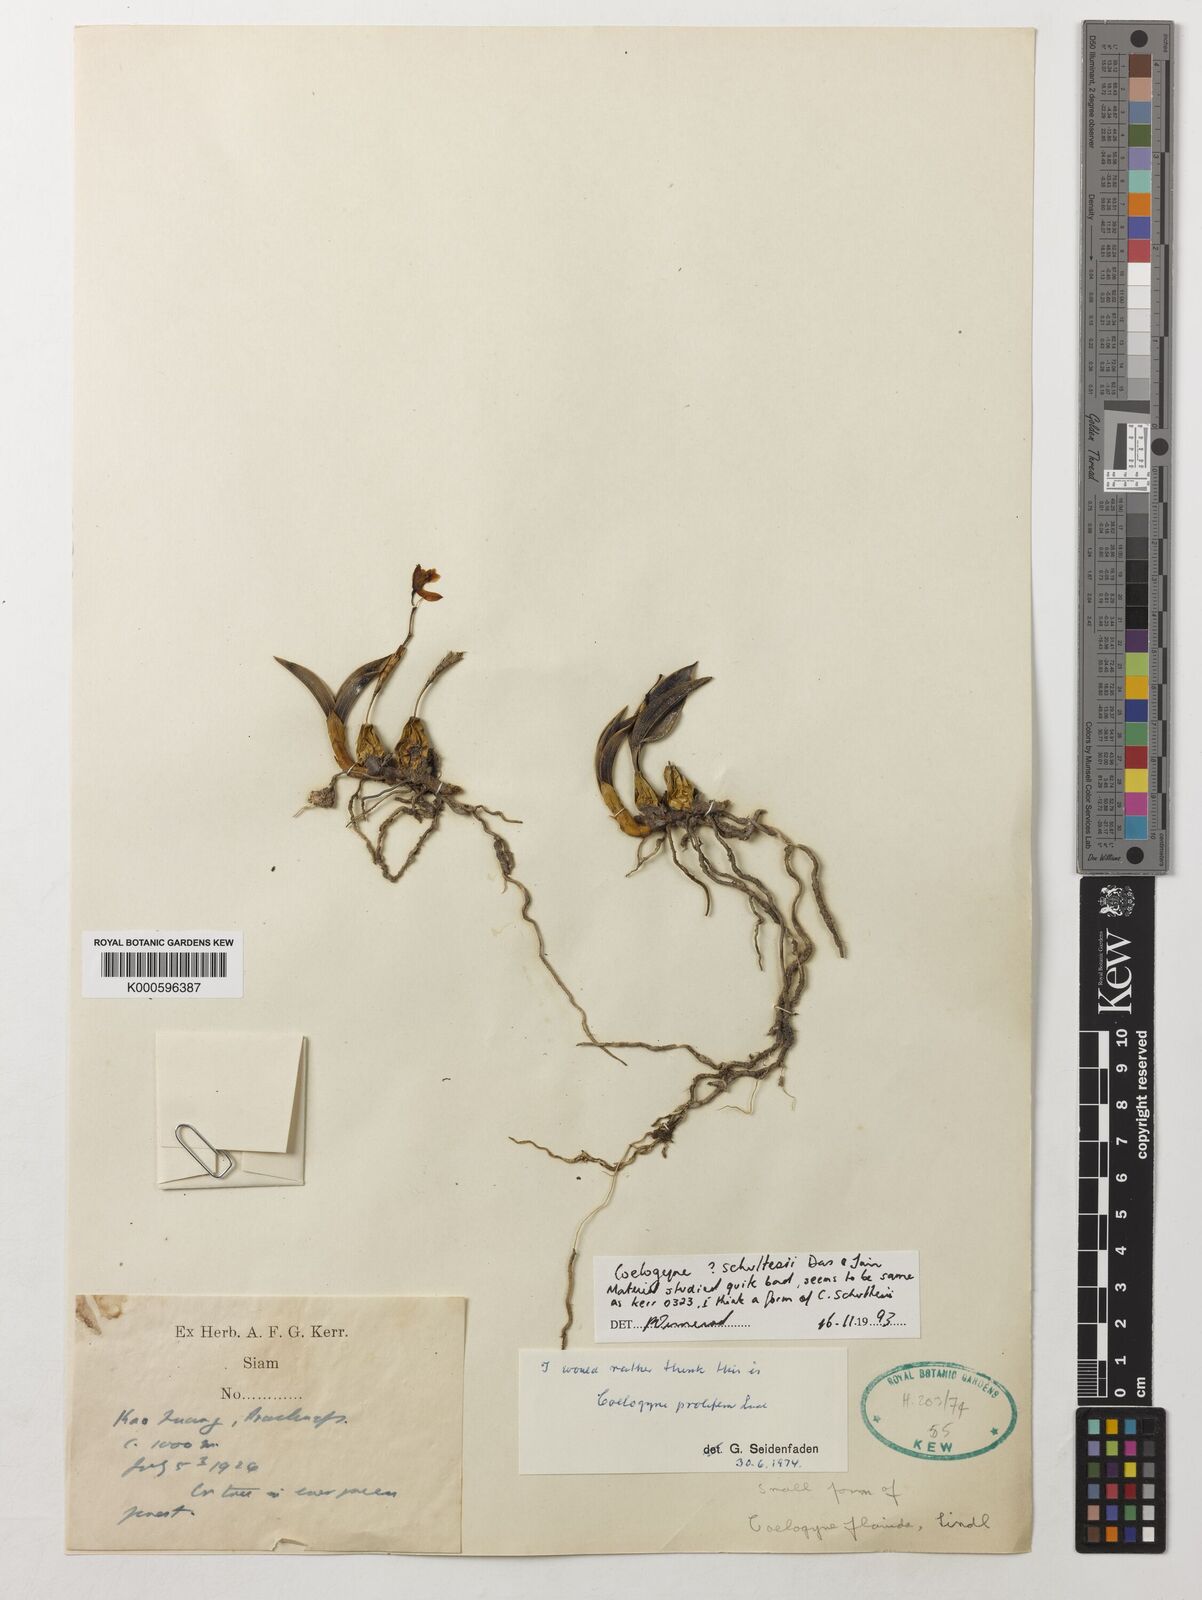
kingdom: Plantae
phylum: Tracheophyta
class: Liliopsida
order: Asparagales
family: Orchidaceae
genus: Coelogyne
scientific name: Coelogyne schultesii
